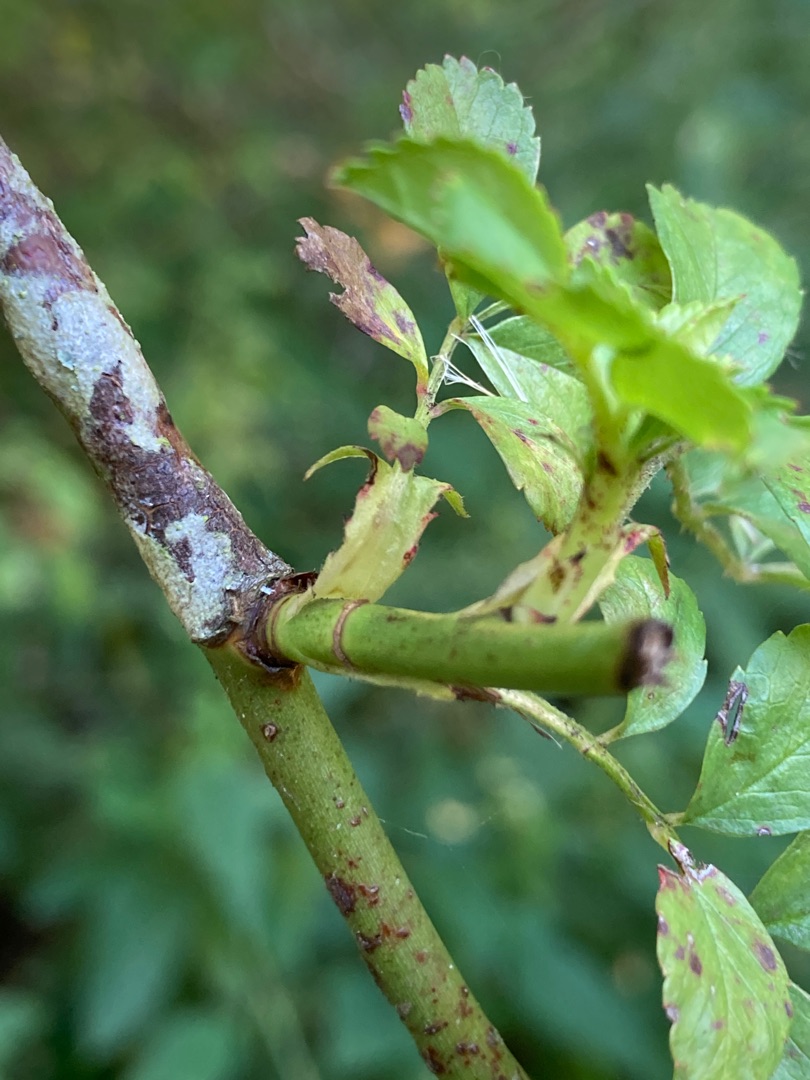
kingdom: Plantae
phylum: Tracheophyta
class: Magnoliopsida
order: Rosales
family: Rosaceae
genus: Rosa
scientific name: Rosa multiflora
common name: Mangeblomstret rose
